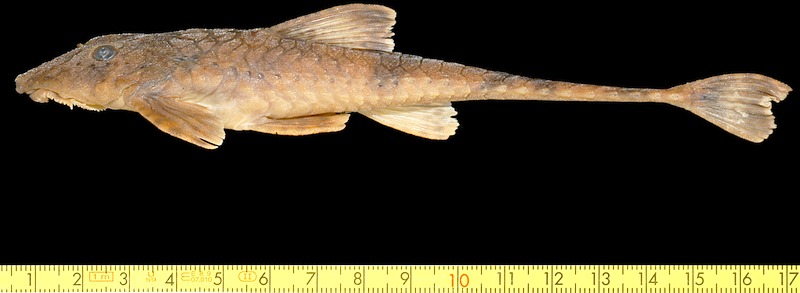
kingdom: Animalia
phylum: Chordata
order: Siluriformes
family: Loricariidae
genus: Rineloricaria
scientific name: Rineloricaria jaraguensis
